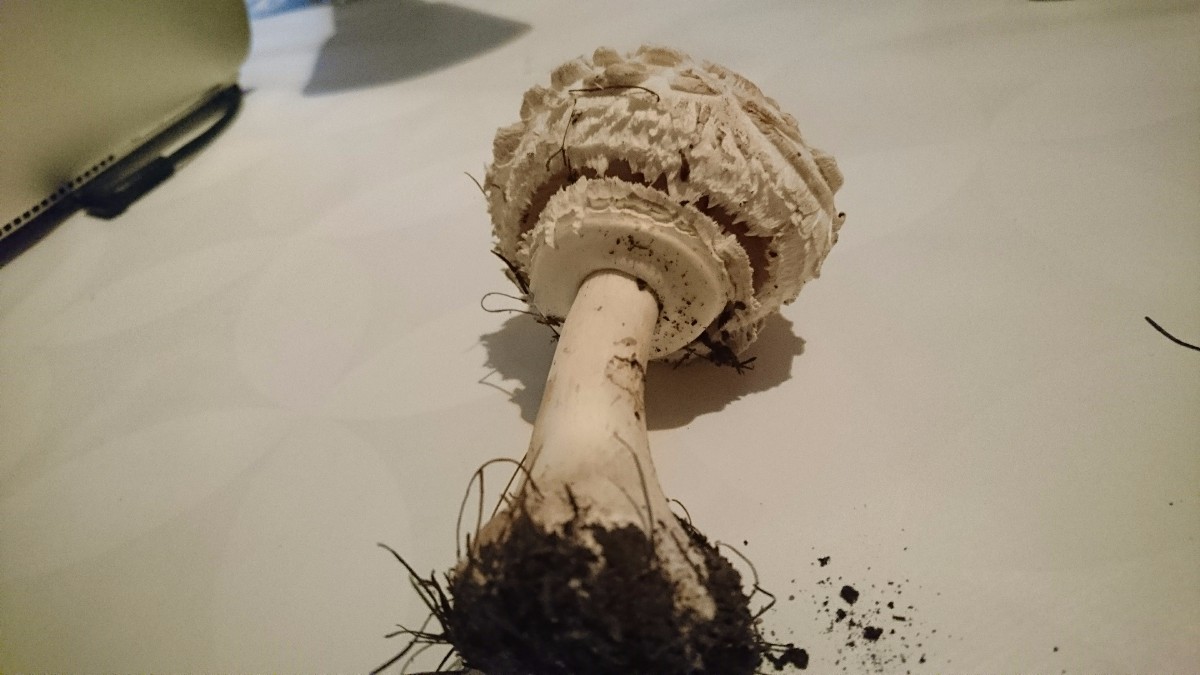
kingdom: Fungi
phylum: Basidiomycota
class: Agaricomycetes
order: Agaricales
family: Agaricaceae
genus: Chlorophyllum
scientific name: Chlorophyllum rhacodes
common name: ægte rabarberhat
